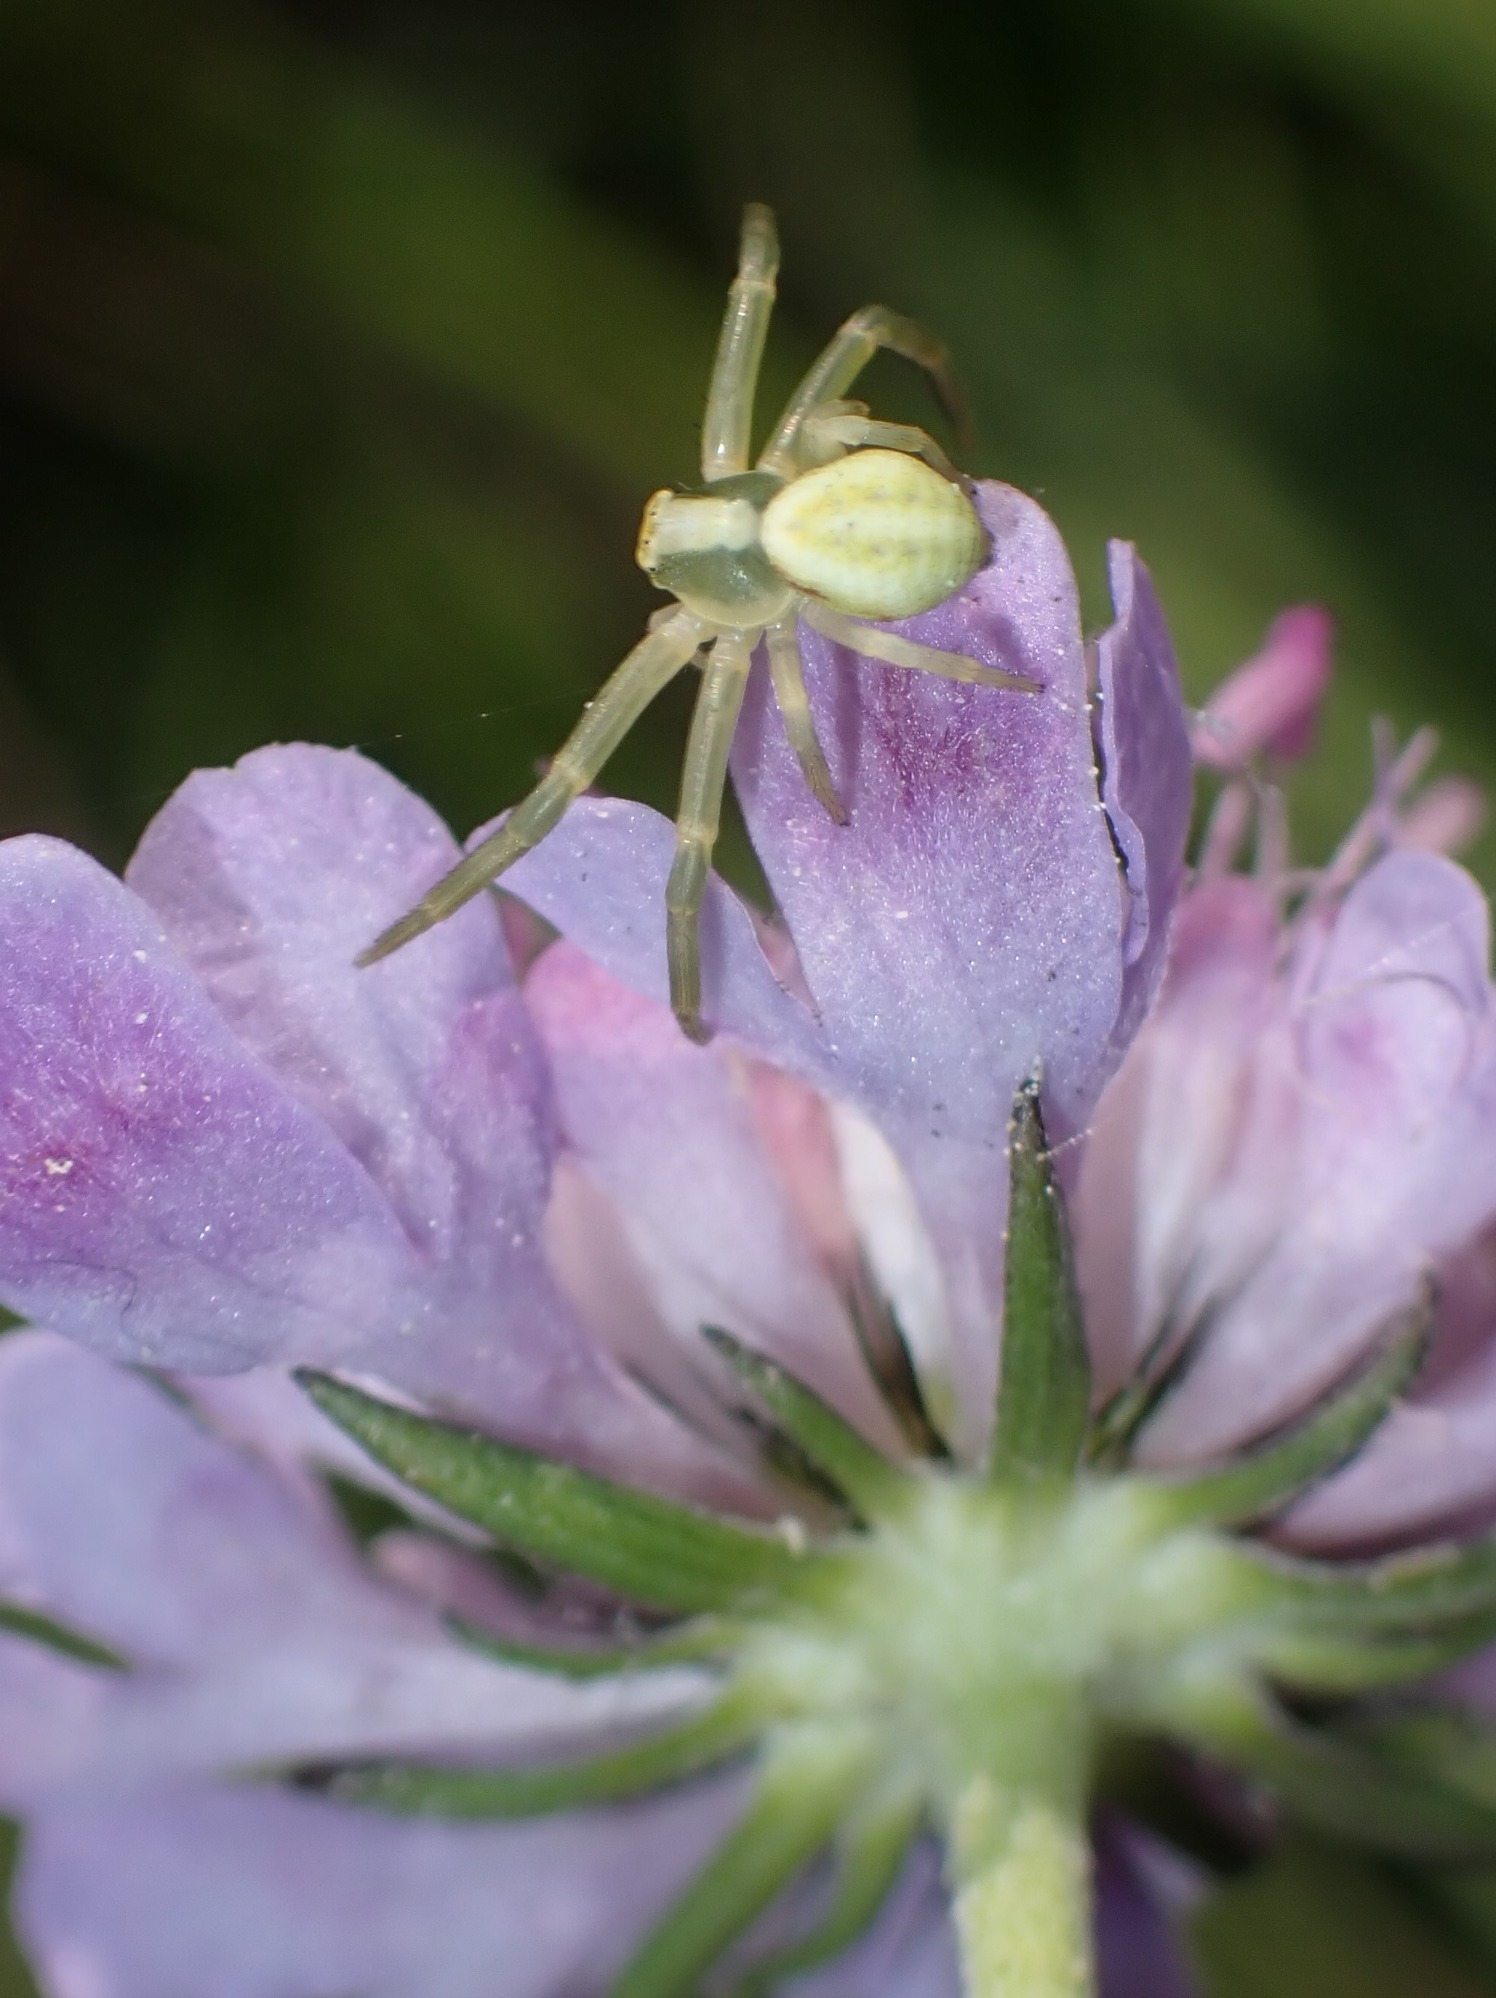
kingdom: Animalia
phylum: Arthropoda
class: Arachnida
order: Araneae
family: Thomisidae
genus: Misumena
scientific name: Misumena vatia
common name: Kamæleonedderkop
